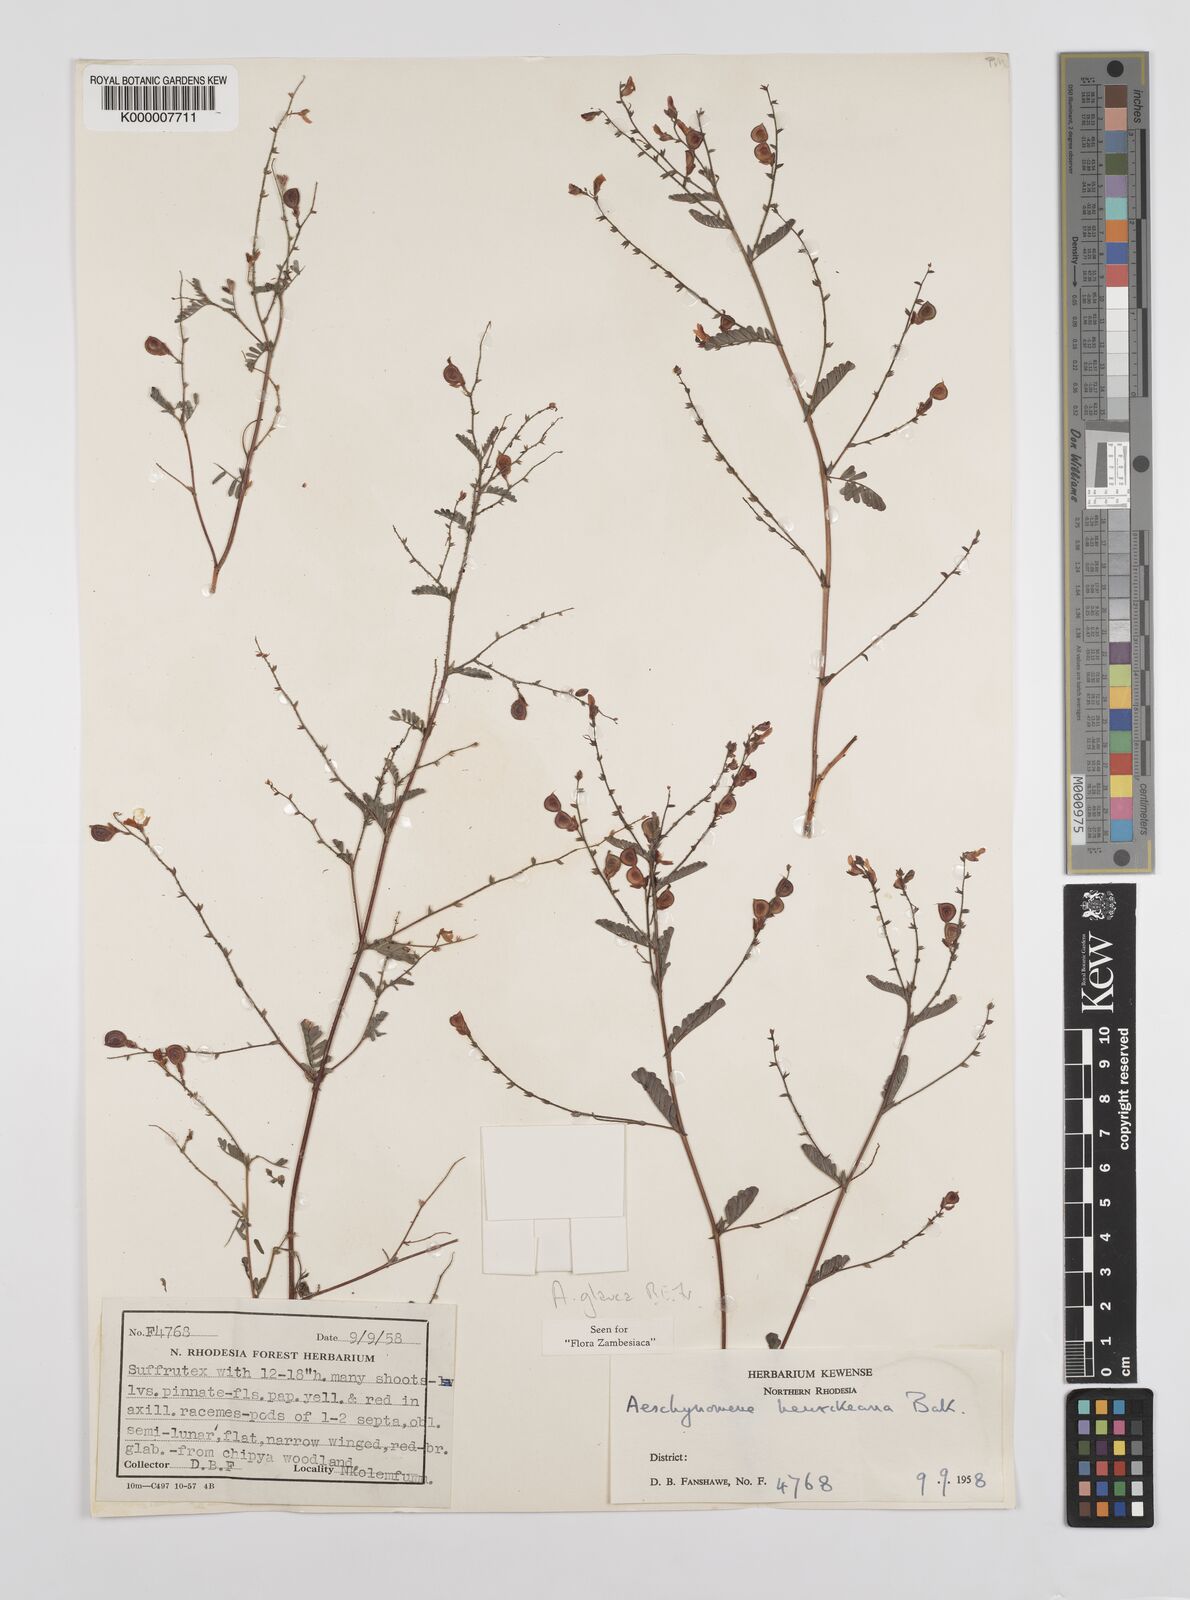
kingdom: Plantae
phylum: Tracheophyta
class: Magnoliopsida
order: Fabales
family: Fabaceae
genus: Aeschynomene
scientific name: Aeschynomene glauca
